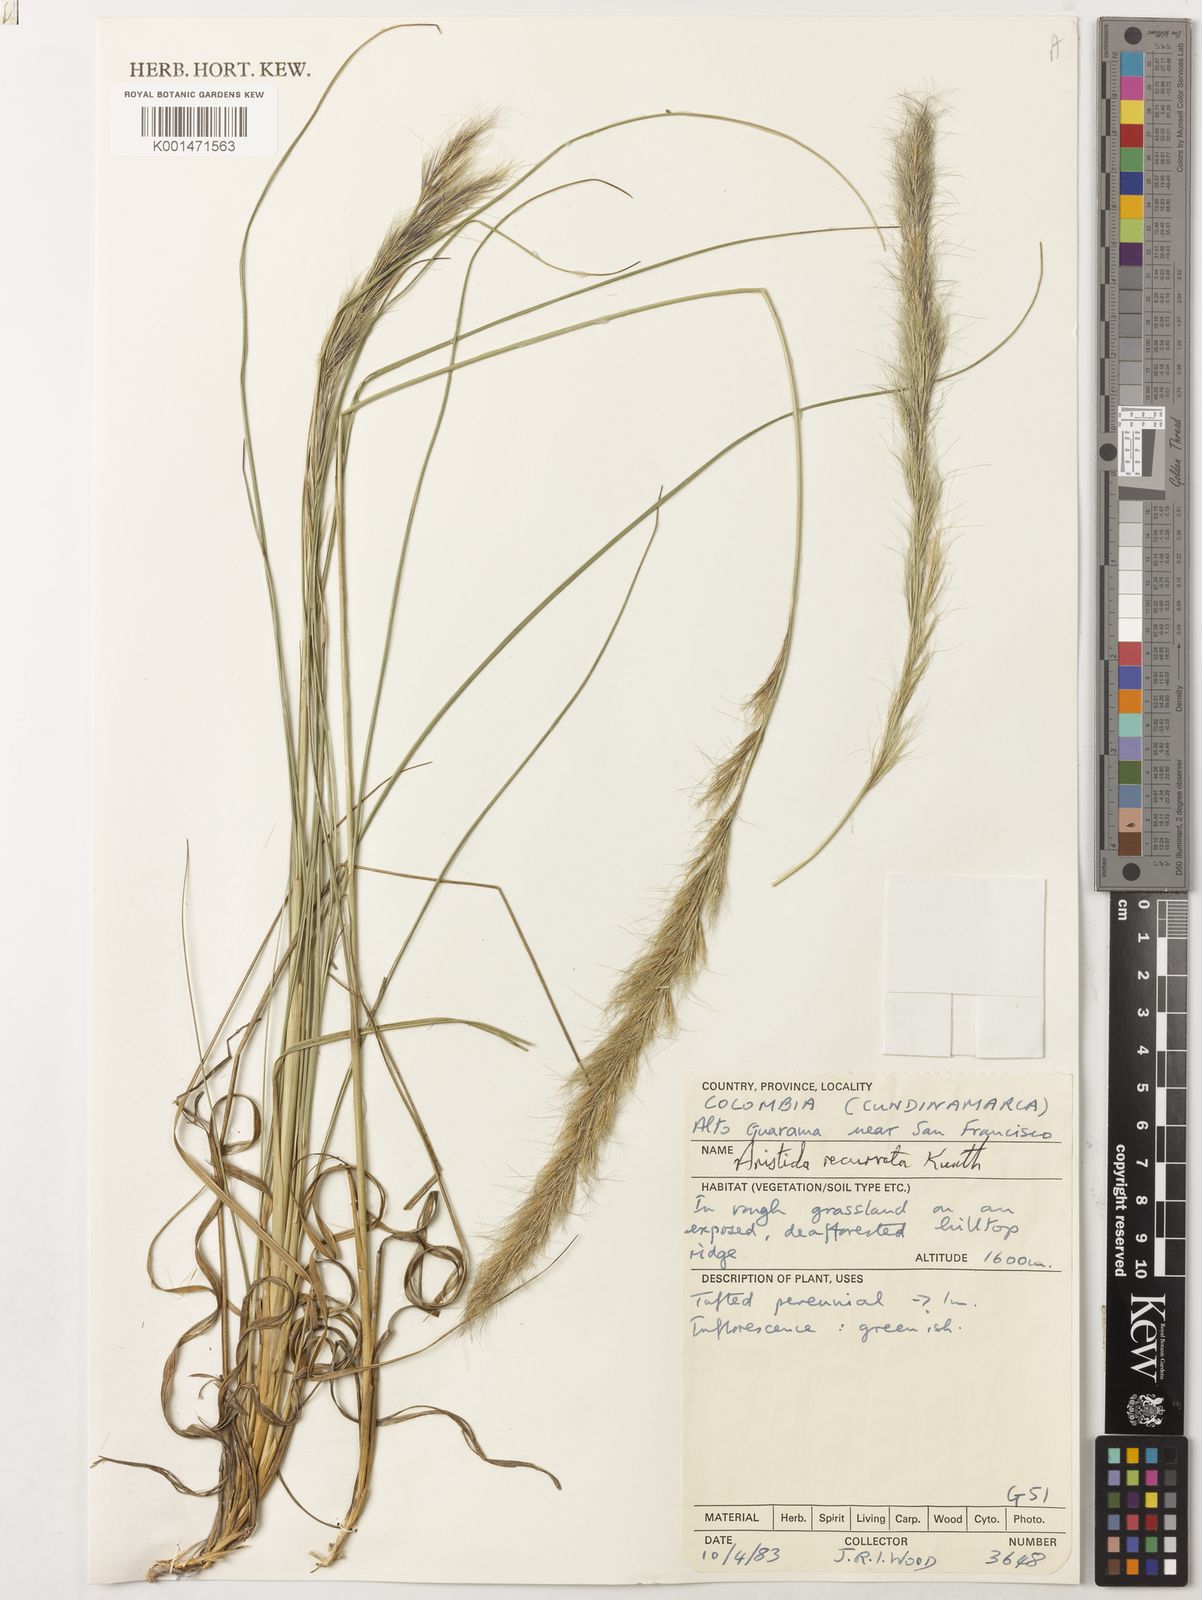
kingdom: Plantae
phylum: Tracheophyta
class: Liliopsida
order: Poales
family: Poaceae
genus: Aristida
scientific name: Aristida recurvata
